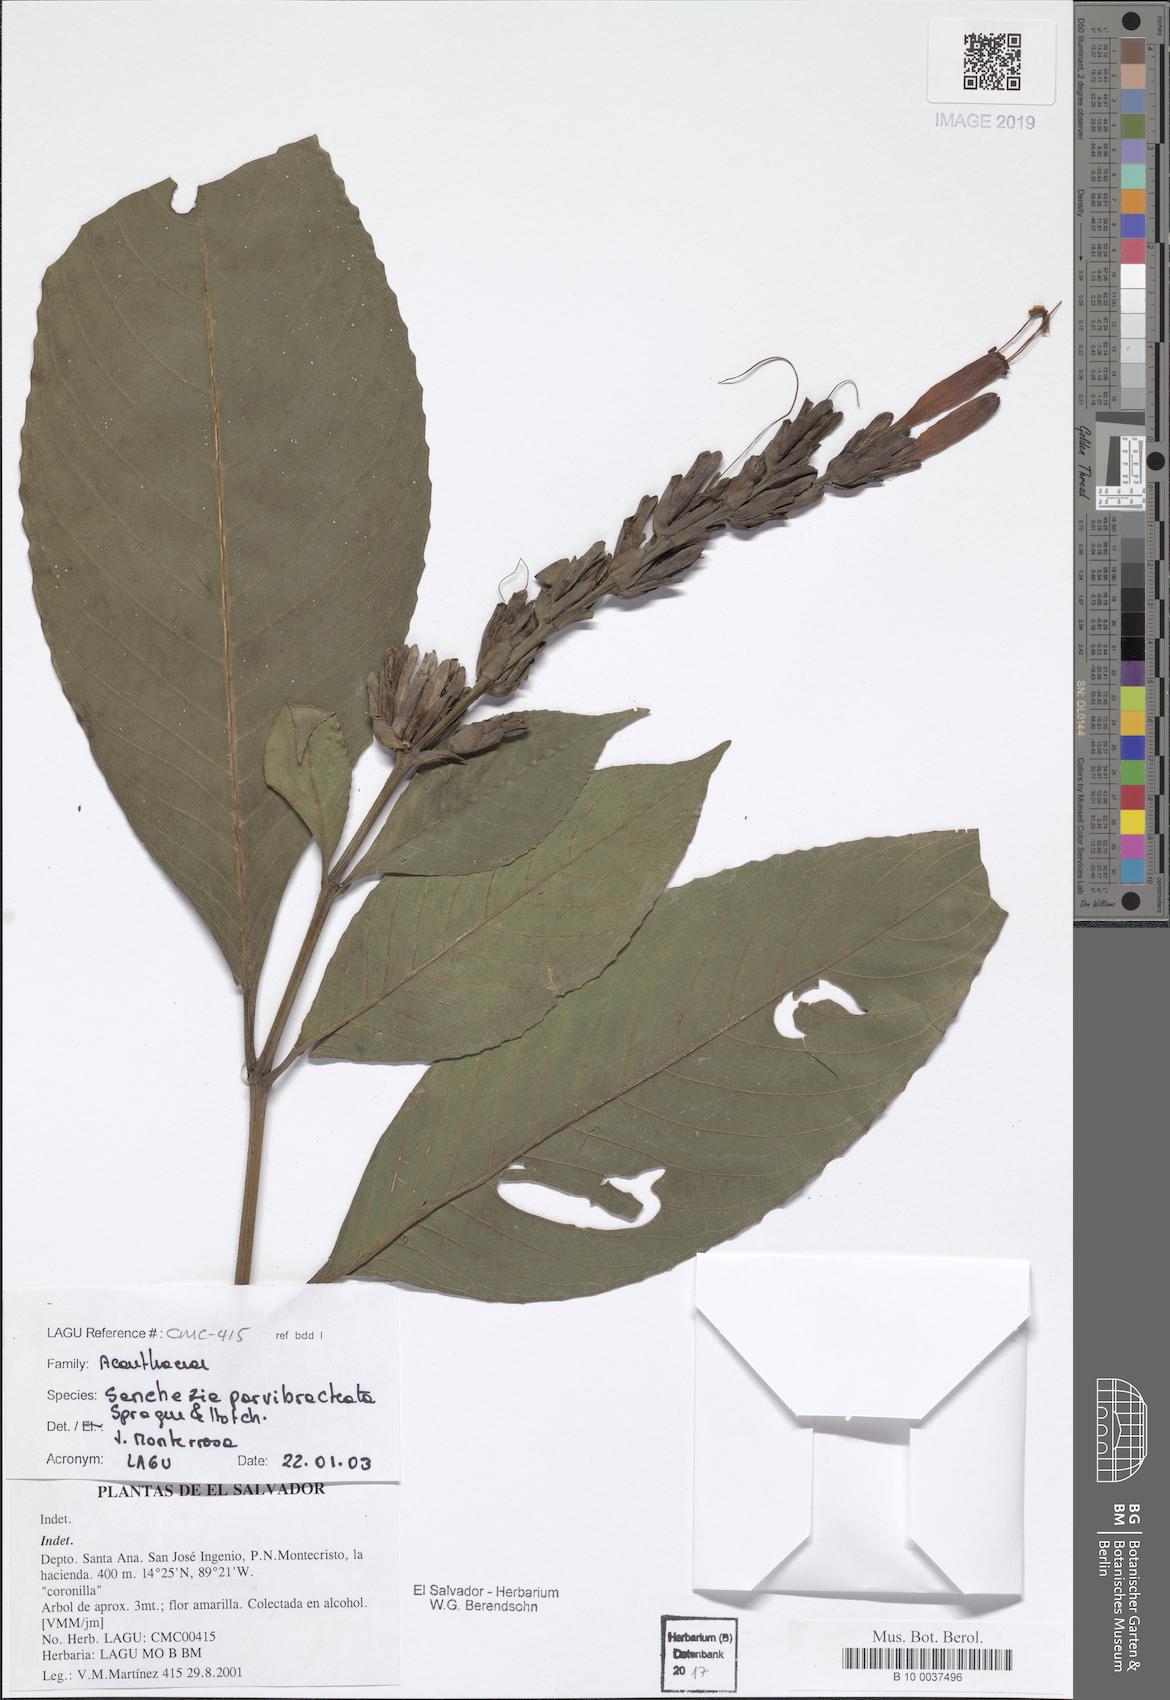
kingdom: Plantae
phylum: Tracheophyta
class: Magnoliopsida
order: Lamiales
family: Acanthaceae
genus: Sanchezia
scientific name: Sanchezia parvibracteata
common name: Sanchezia
